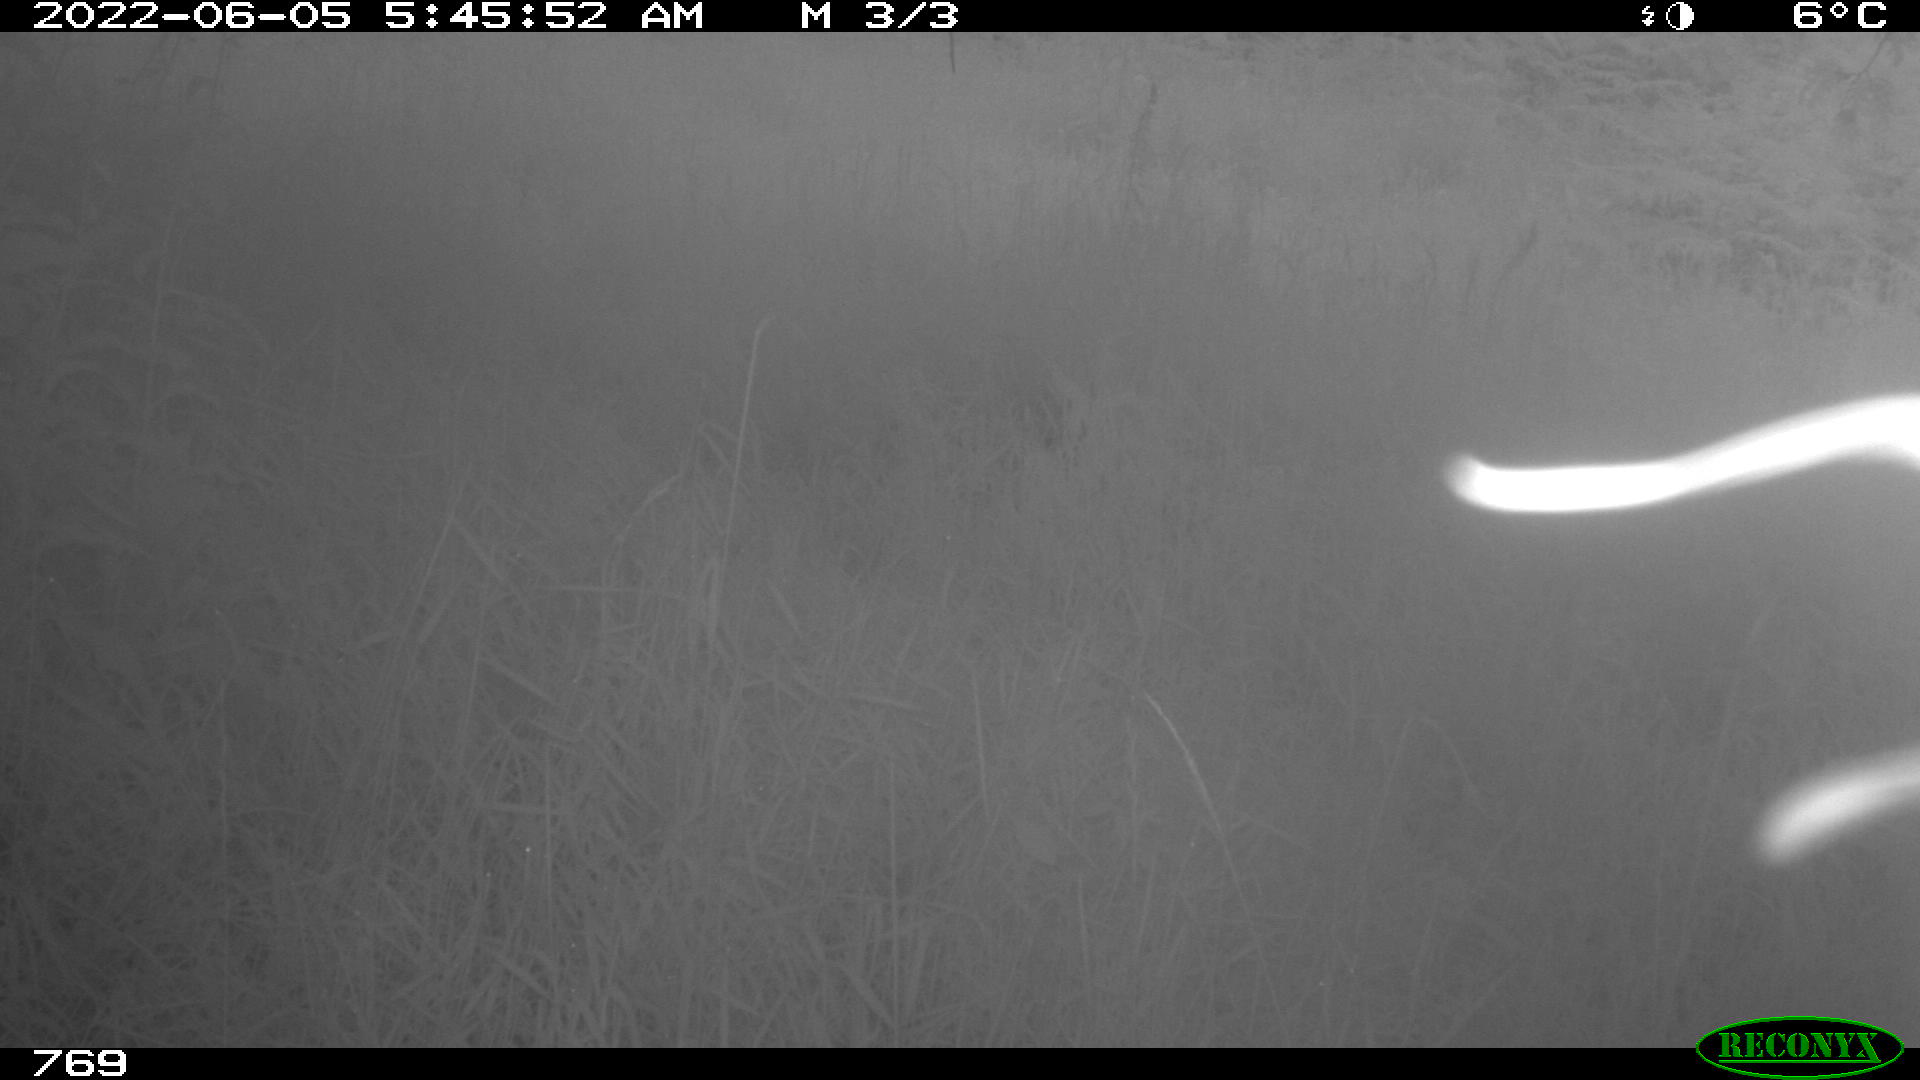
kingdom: Animalia
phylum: Chordata
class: Mammalia
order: Artiodactyla
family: Suidae
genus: Sus
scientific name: Sus scrofa
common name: Wild boar
